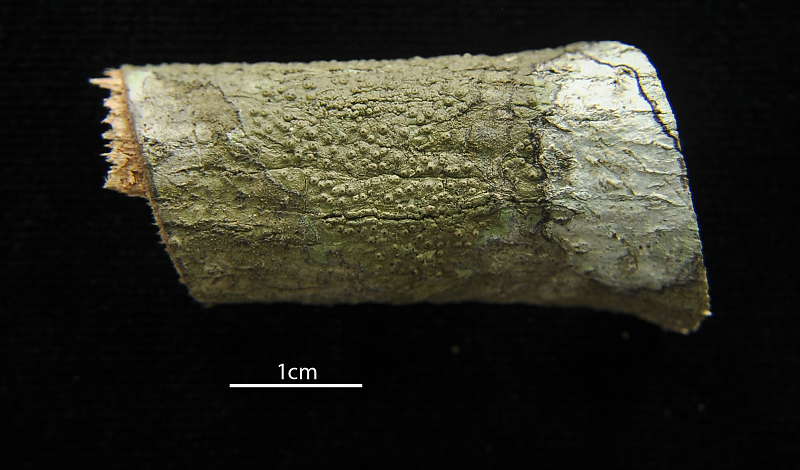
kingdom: Fungi
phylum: Ascomycota
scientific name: Ascomycota
